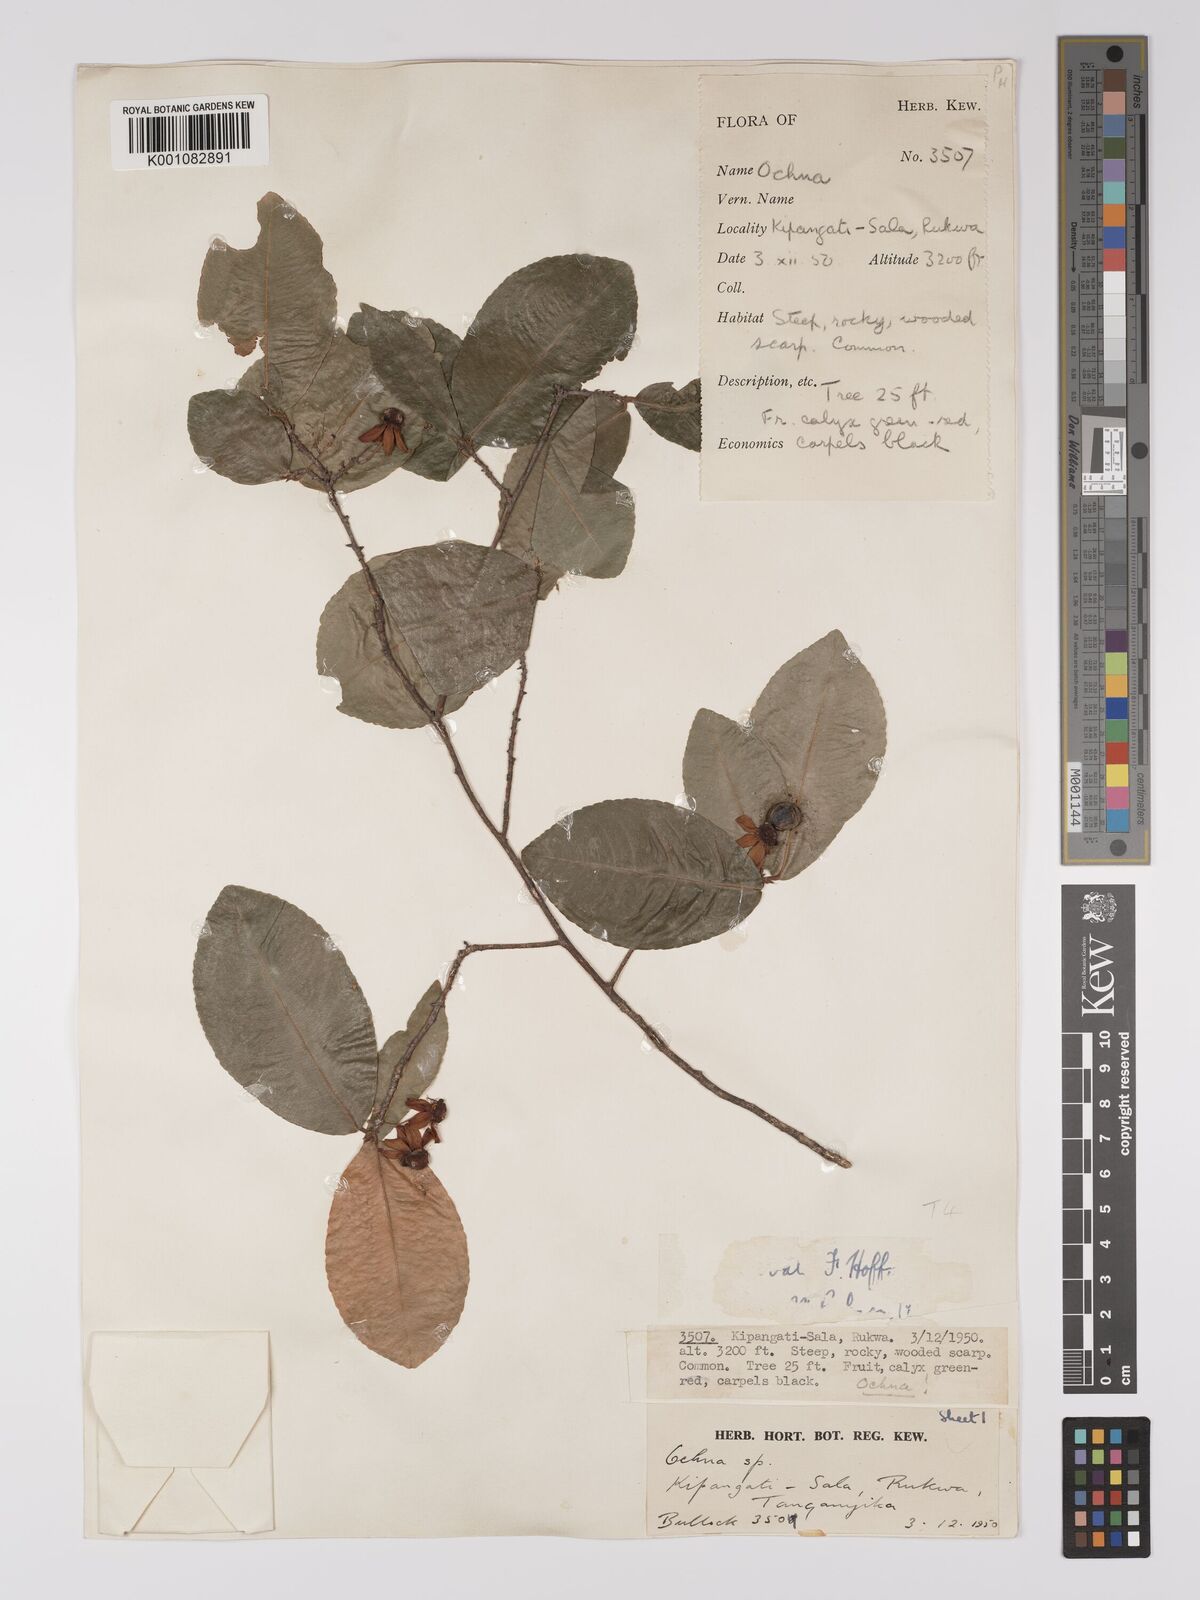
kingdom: Plantae
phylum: Tracheophyta
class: Magnoliopsida
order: Malpighiales
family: Ochnaceae
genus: Ochna
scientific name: Ochna ovata
